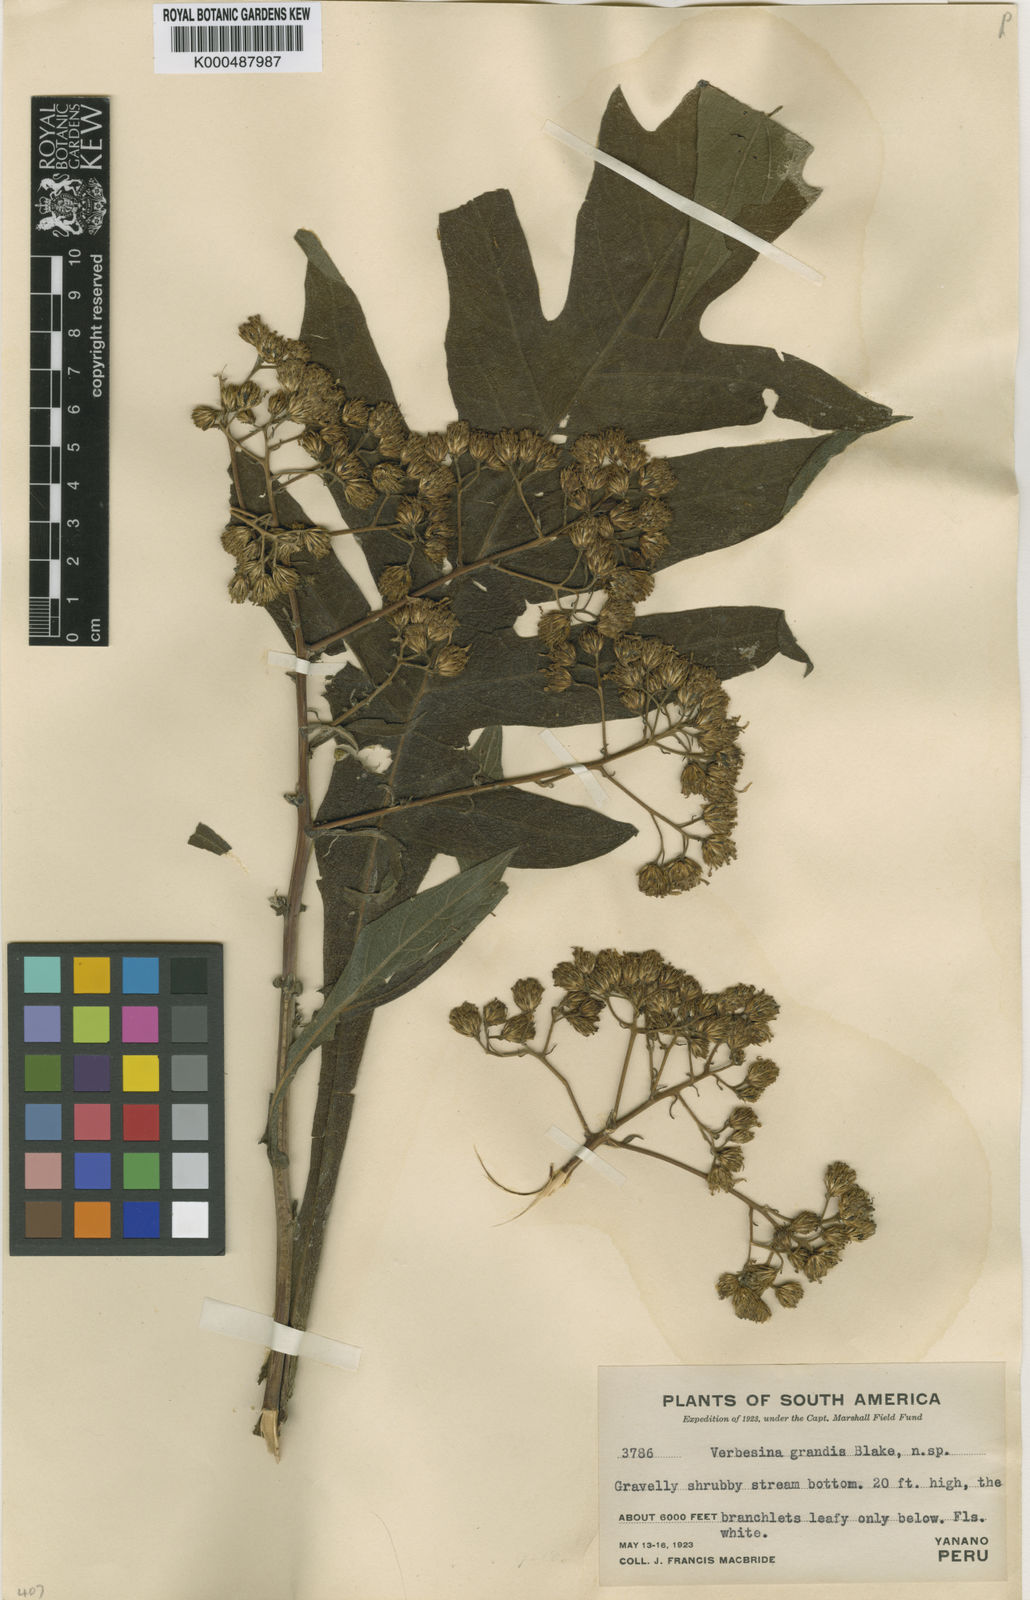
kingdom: Plantae
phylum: Tracheophyta
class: Magnoliopsida
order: Asterales
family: Asteraceae
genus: Verbesina
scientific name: Verbesina grandis
